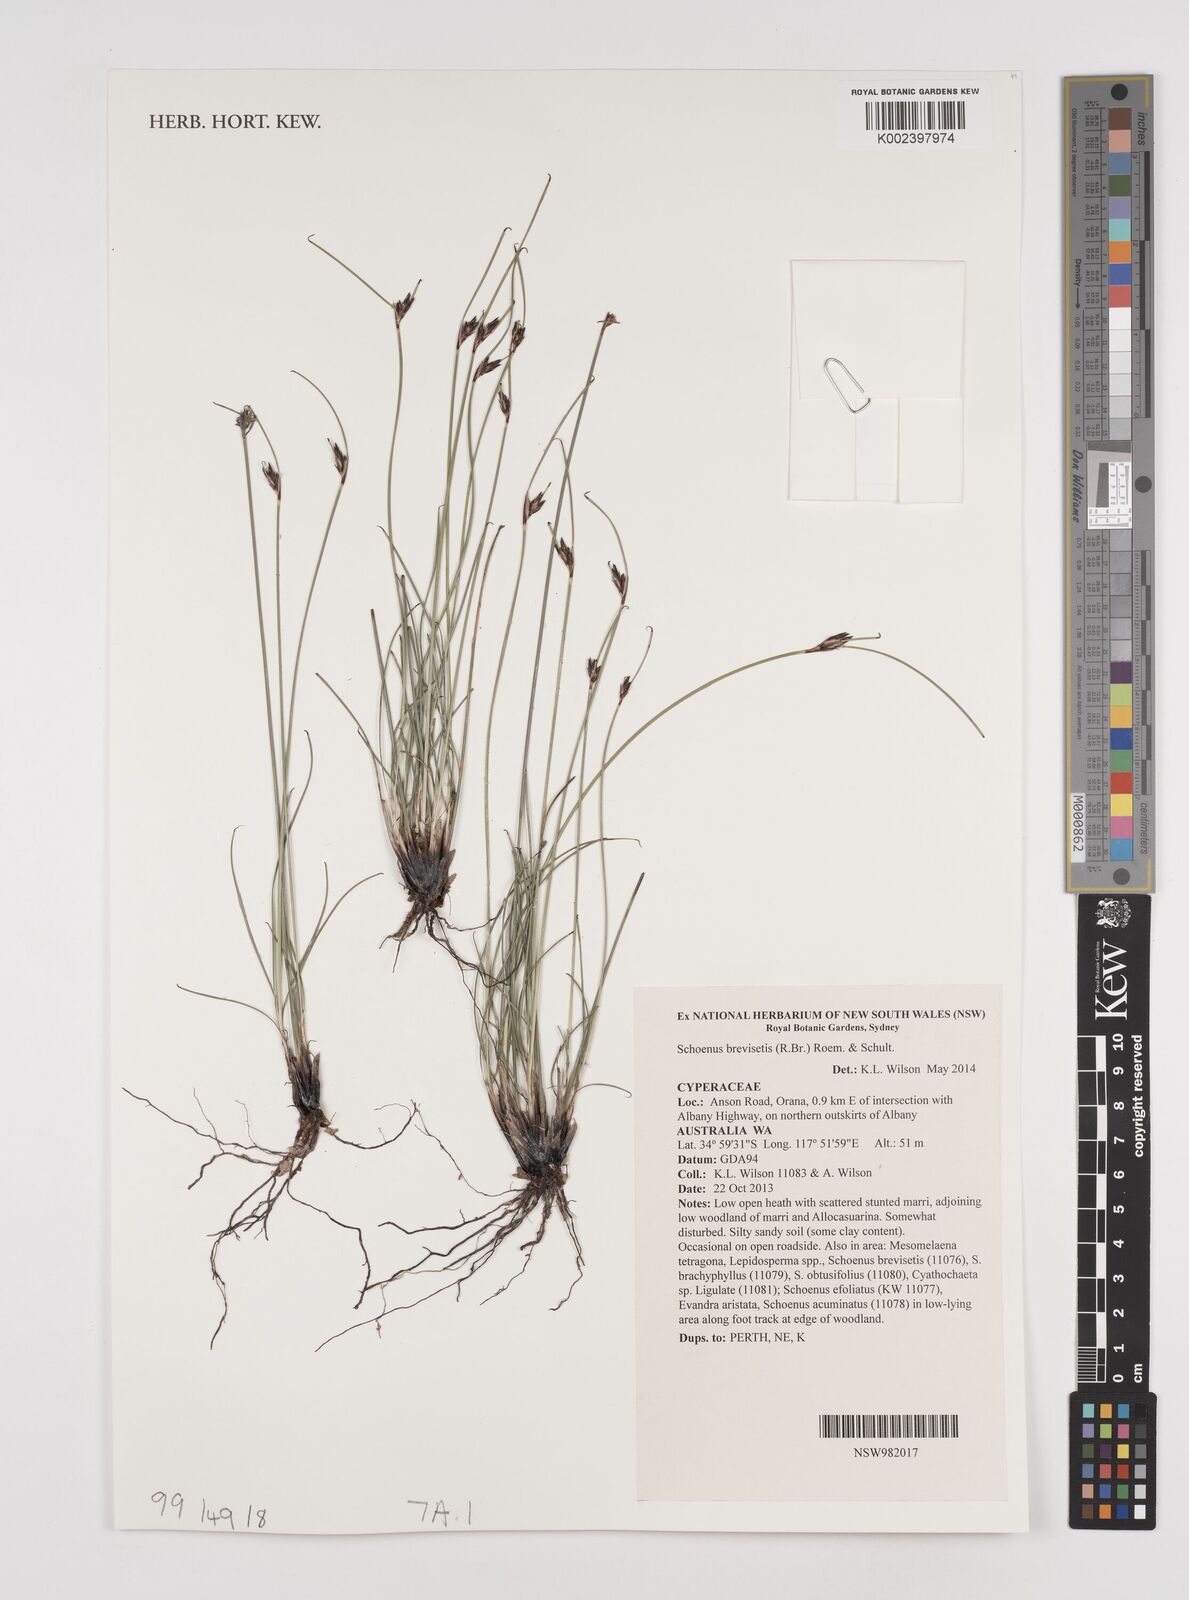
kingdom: Plantae
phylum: Tracheophyta
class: Liliopsida
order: Poales
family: Cyperaceae
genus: Schoenus
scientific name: Schoenus brevisetis
